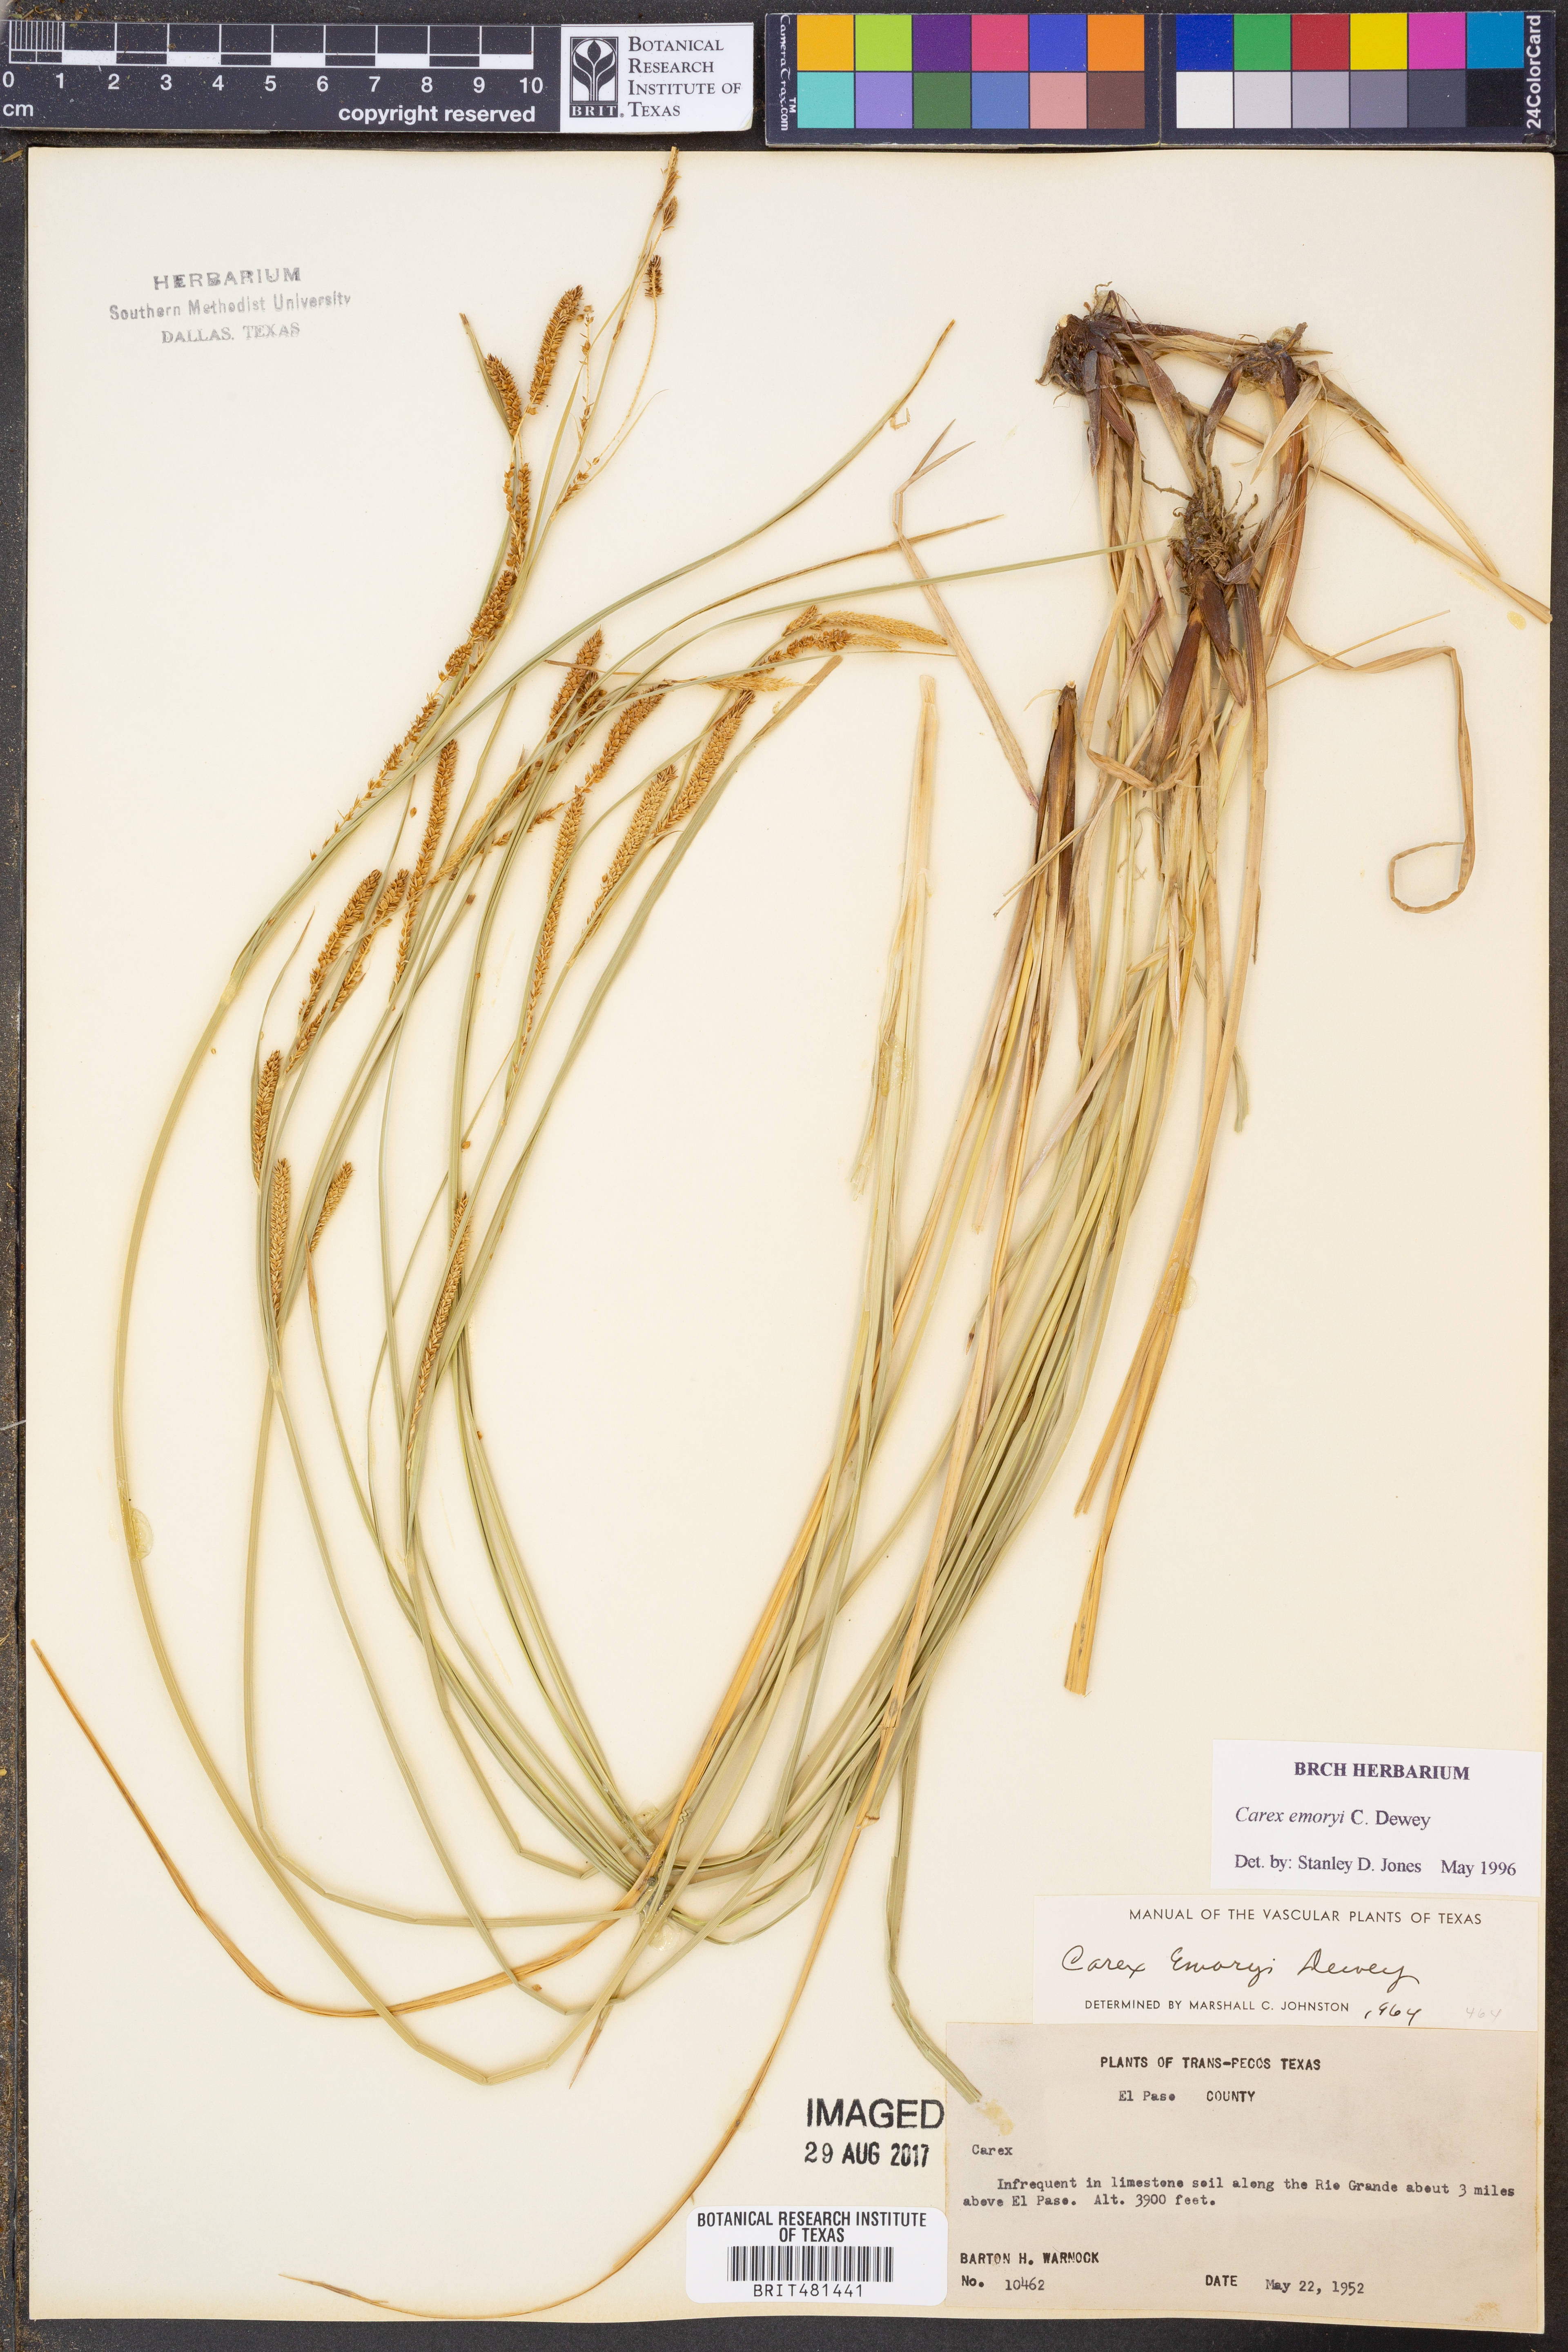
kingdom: Plantae
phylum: Tracheophyta
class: Liliopsida
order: Poales
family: Cyperaceae
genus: Carex
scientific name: Carex emoryi
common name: Emory's sedge
